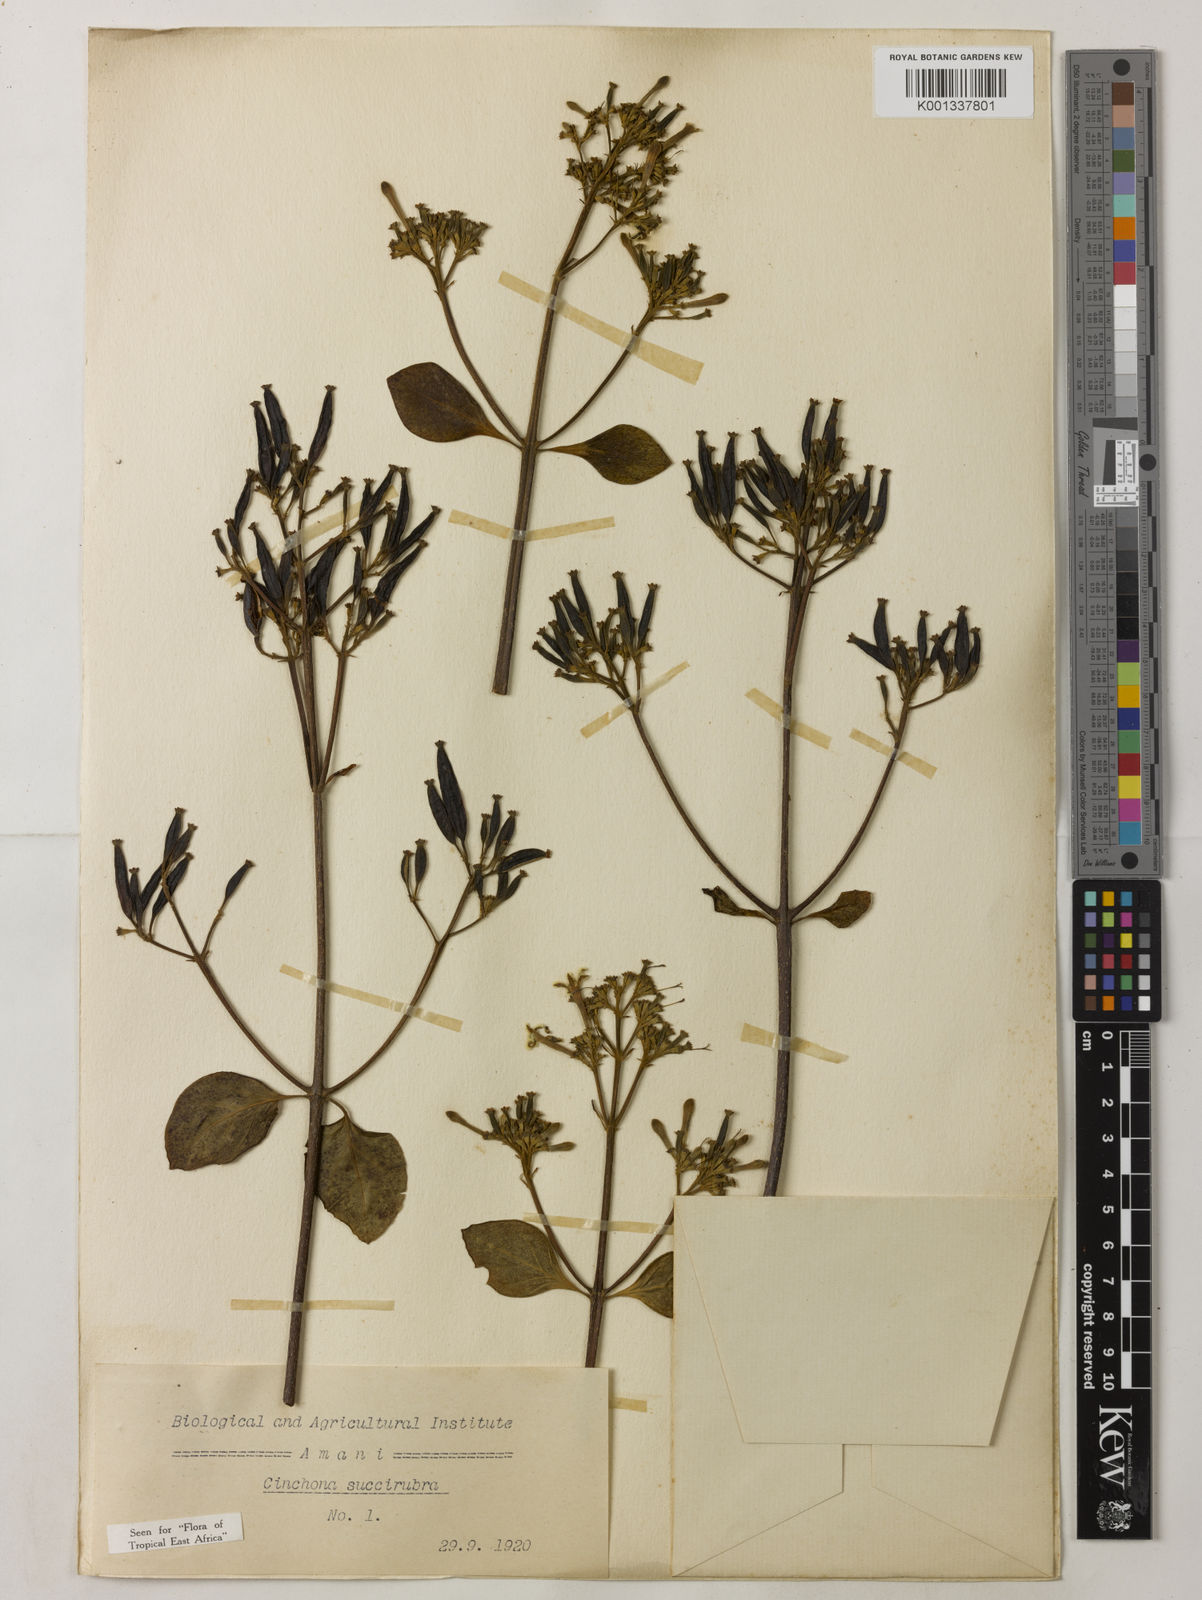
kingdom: Plantae
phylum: Tracheophyta
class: Magnoliopsida
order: Gentianales
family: Rubiaceae
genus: Cinchona
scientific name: Cinchona pubescens
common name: Quinine
